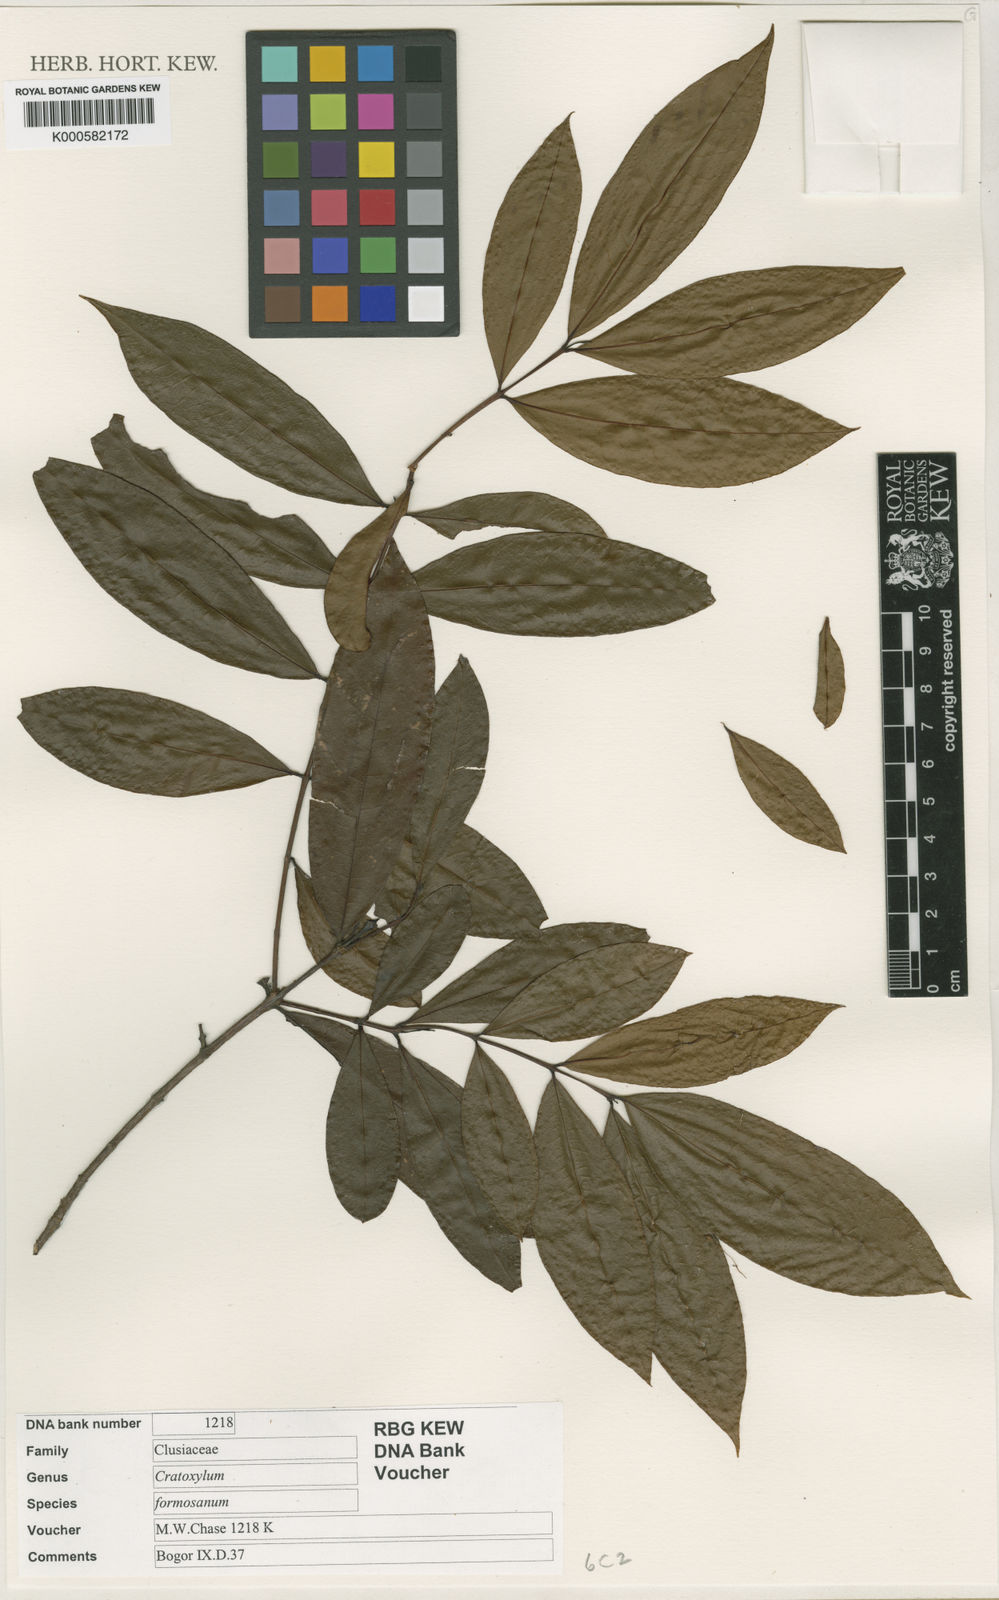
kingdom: Plantae
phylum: Tracheophyta
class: Magnoliopsida
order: Malpighiales
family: Hypericaceae
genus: Cratoxylum
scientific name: Cratoxylum formosum
